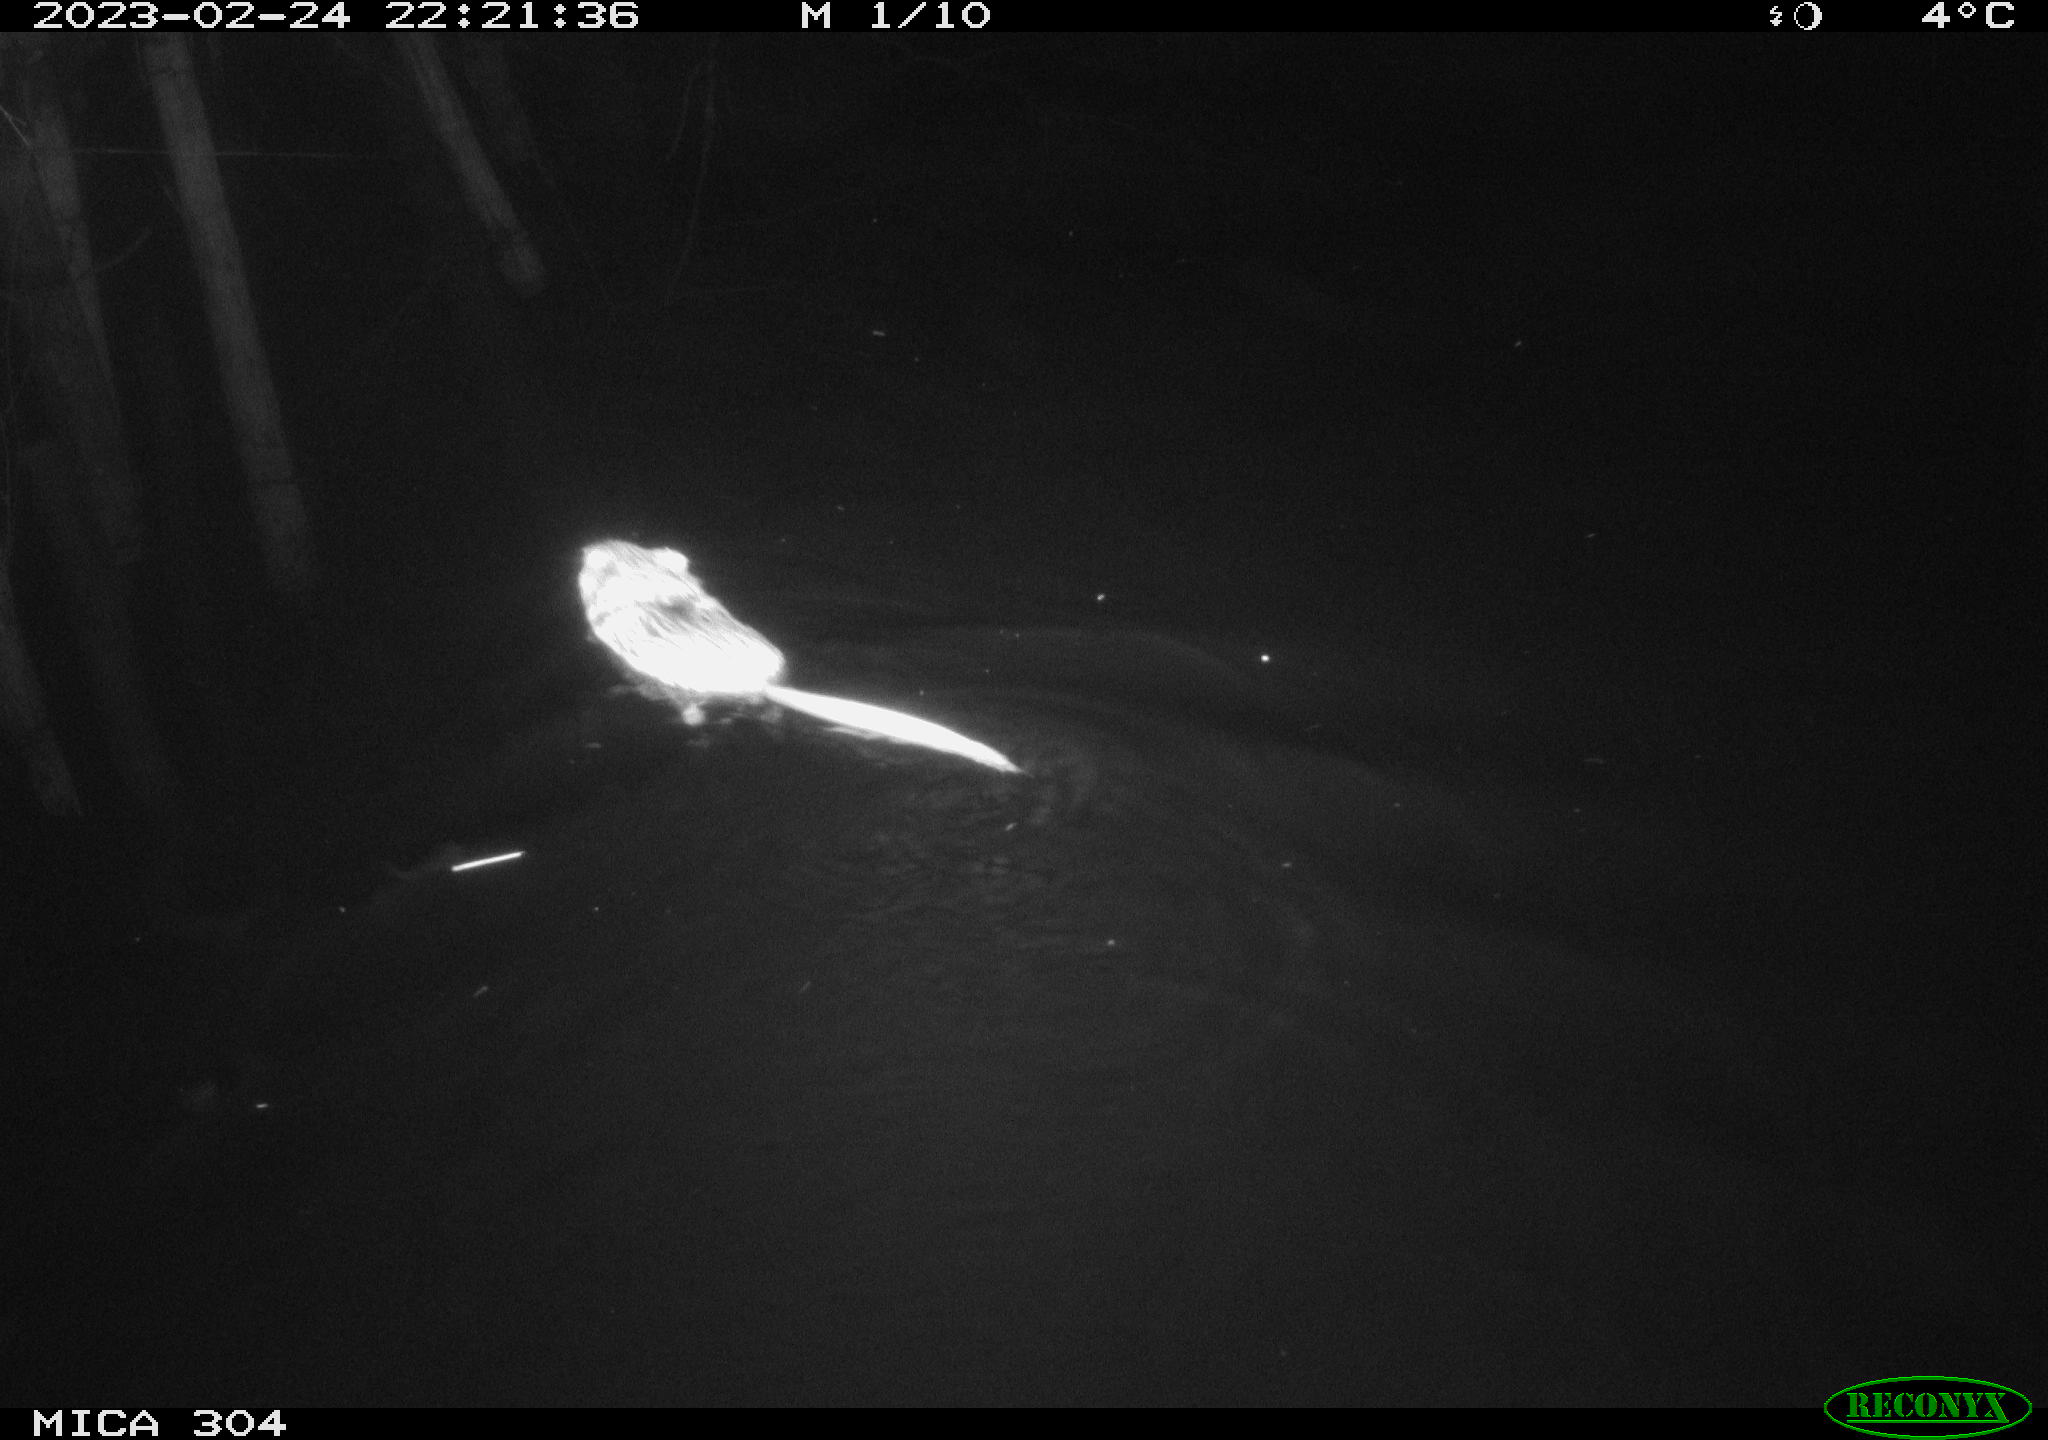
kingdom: Animalia
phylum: Chordata
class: Mammalia
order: Rodentia
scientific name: Rodentia
